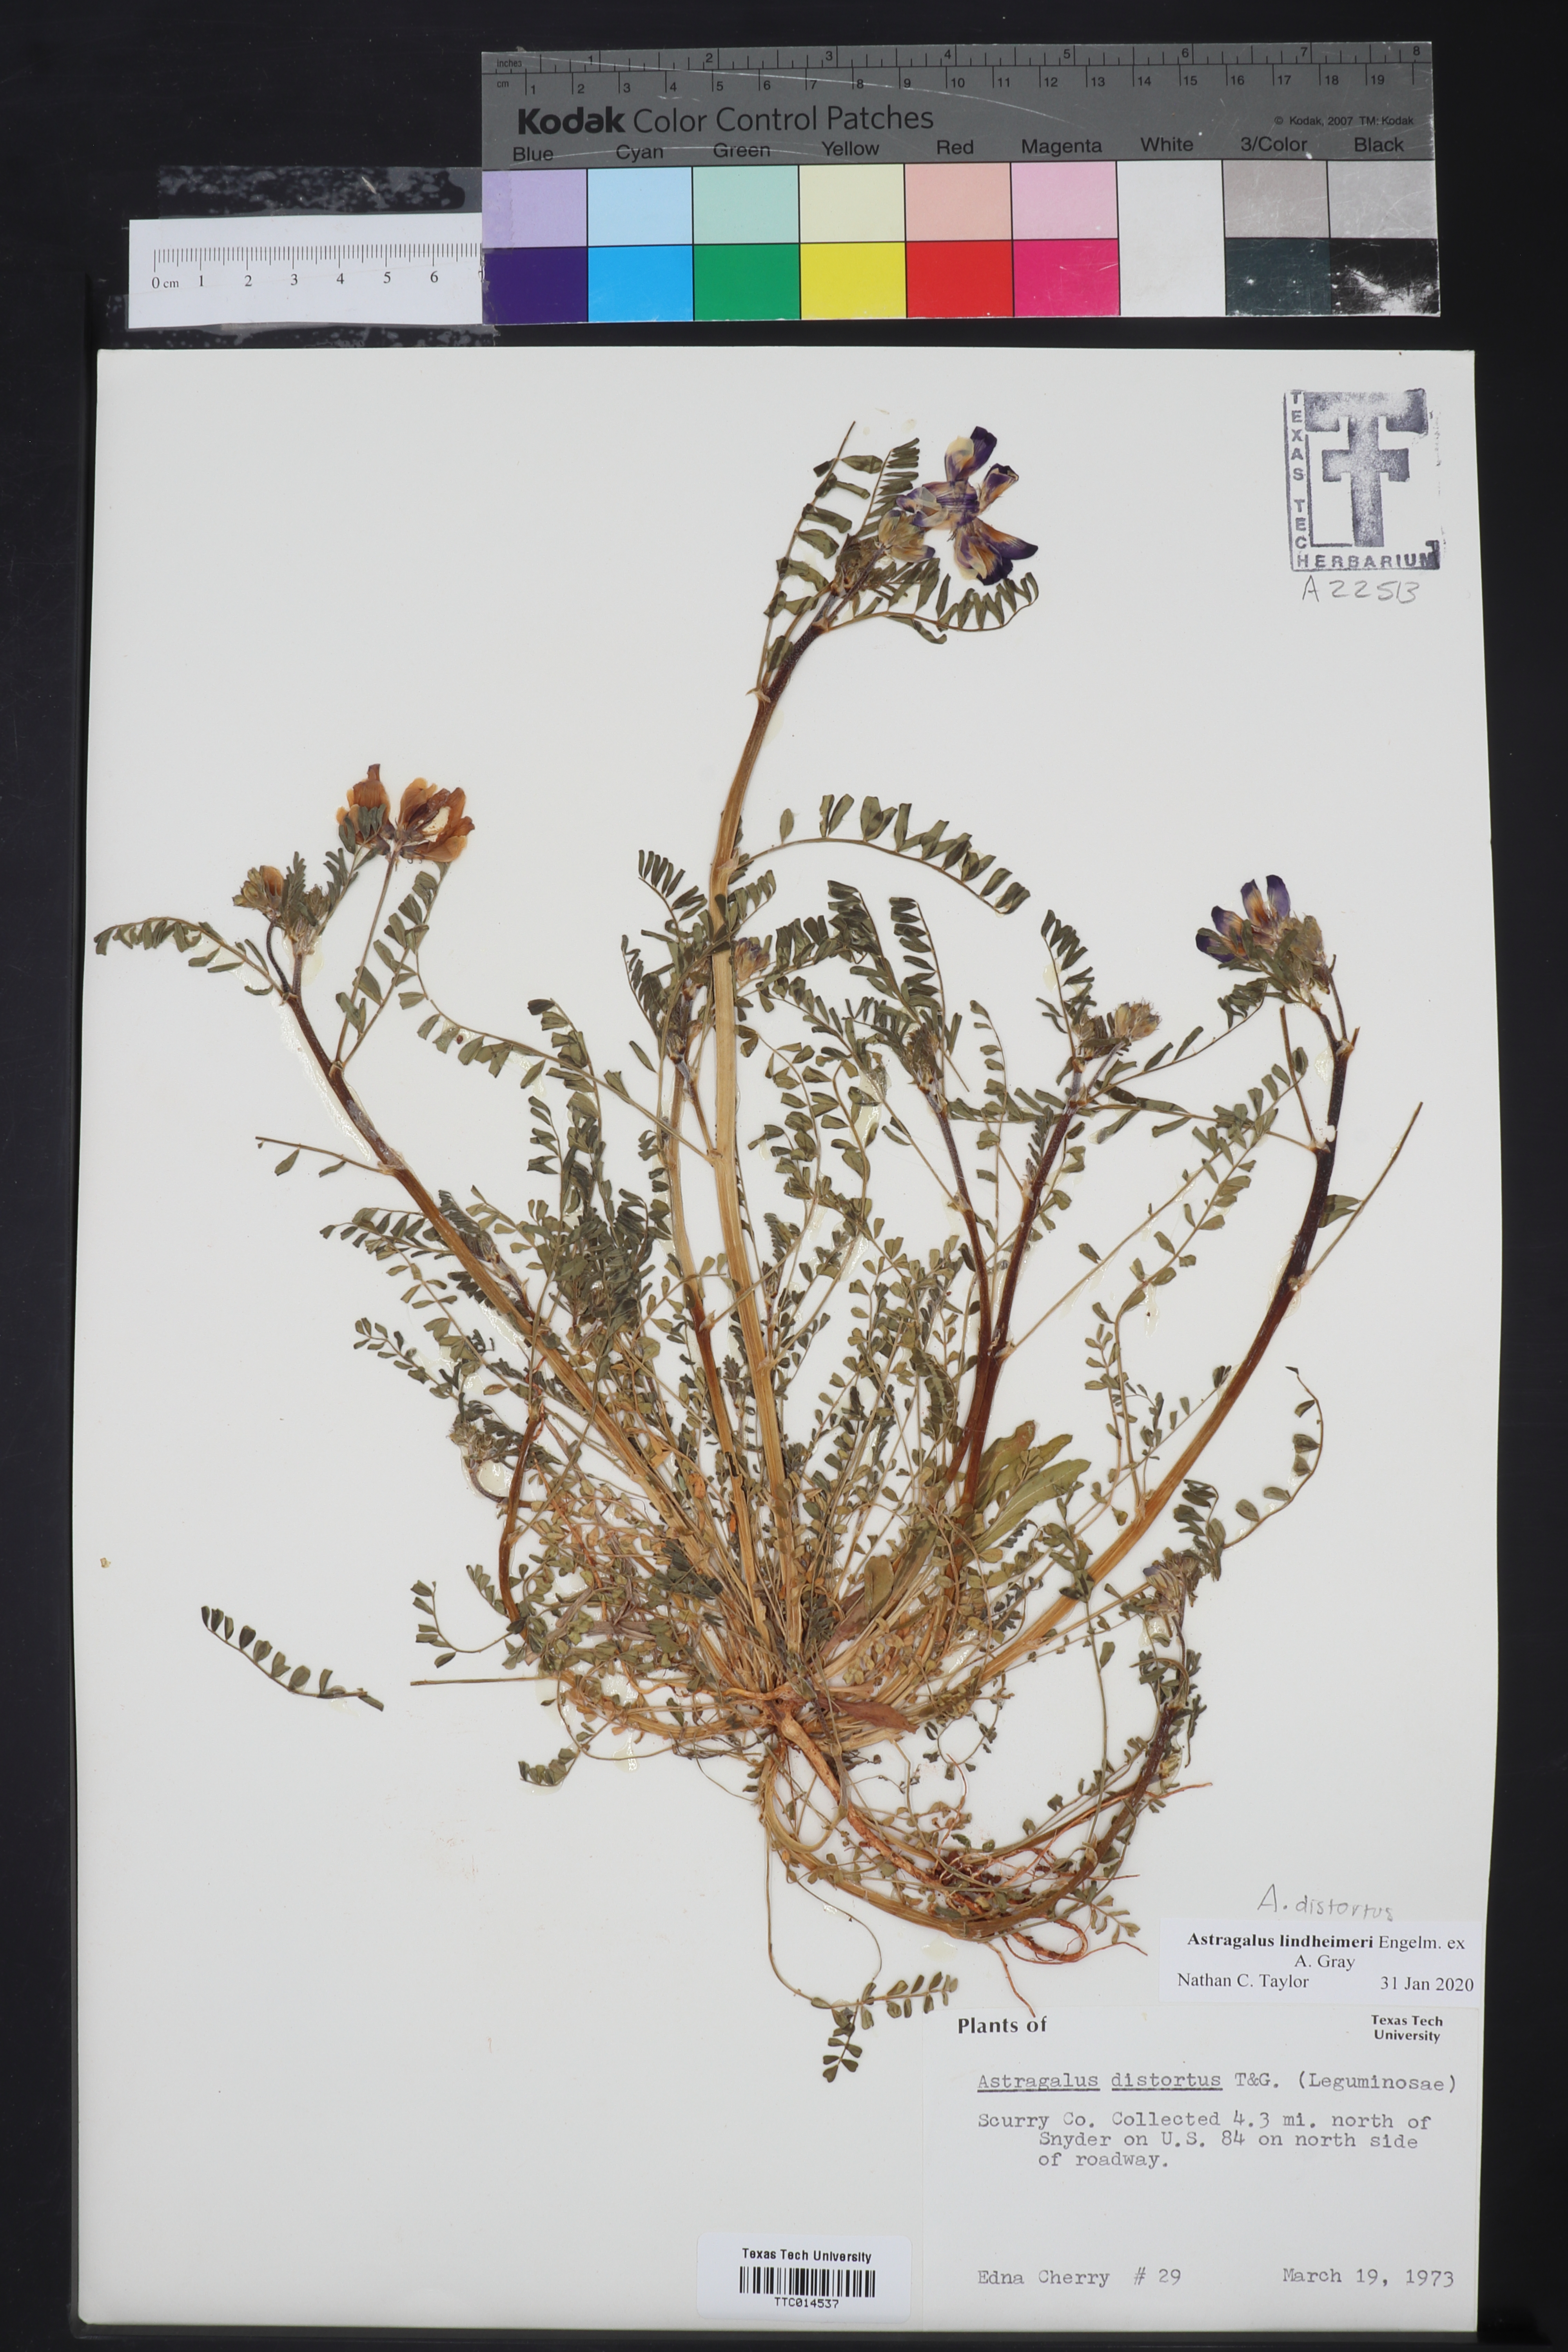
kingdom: Plantae
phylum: Tracheophyta
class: Magnoliopsida
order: Fabales
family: Fabaceae
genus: Astragalus
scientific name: Astragalus lindheimeri
